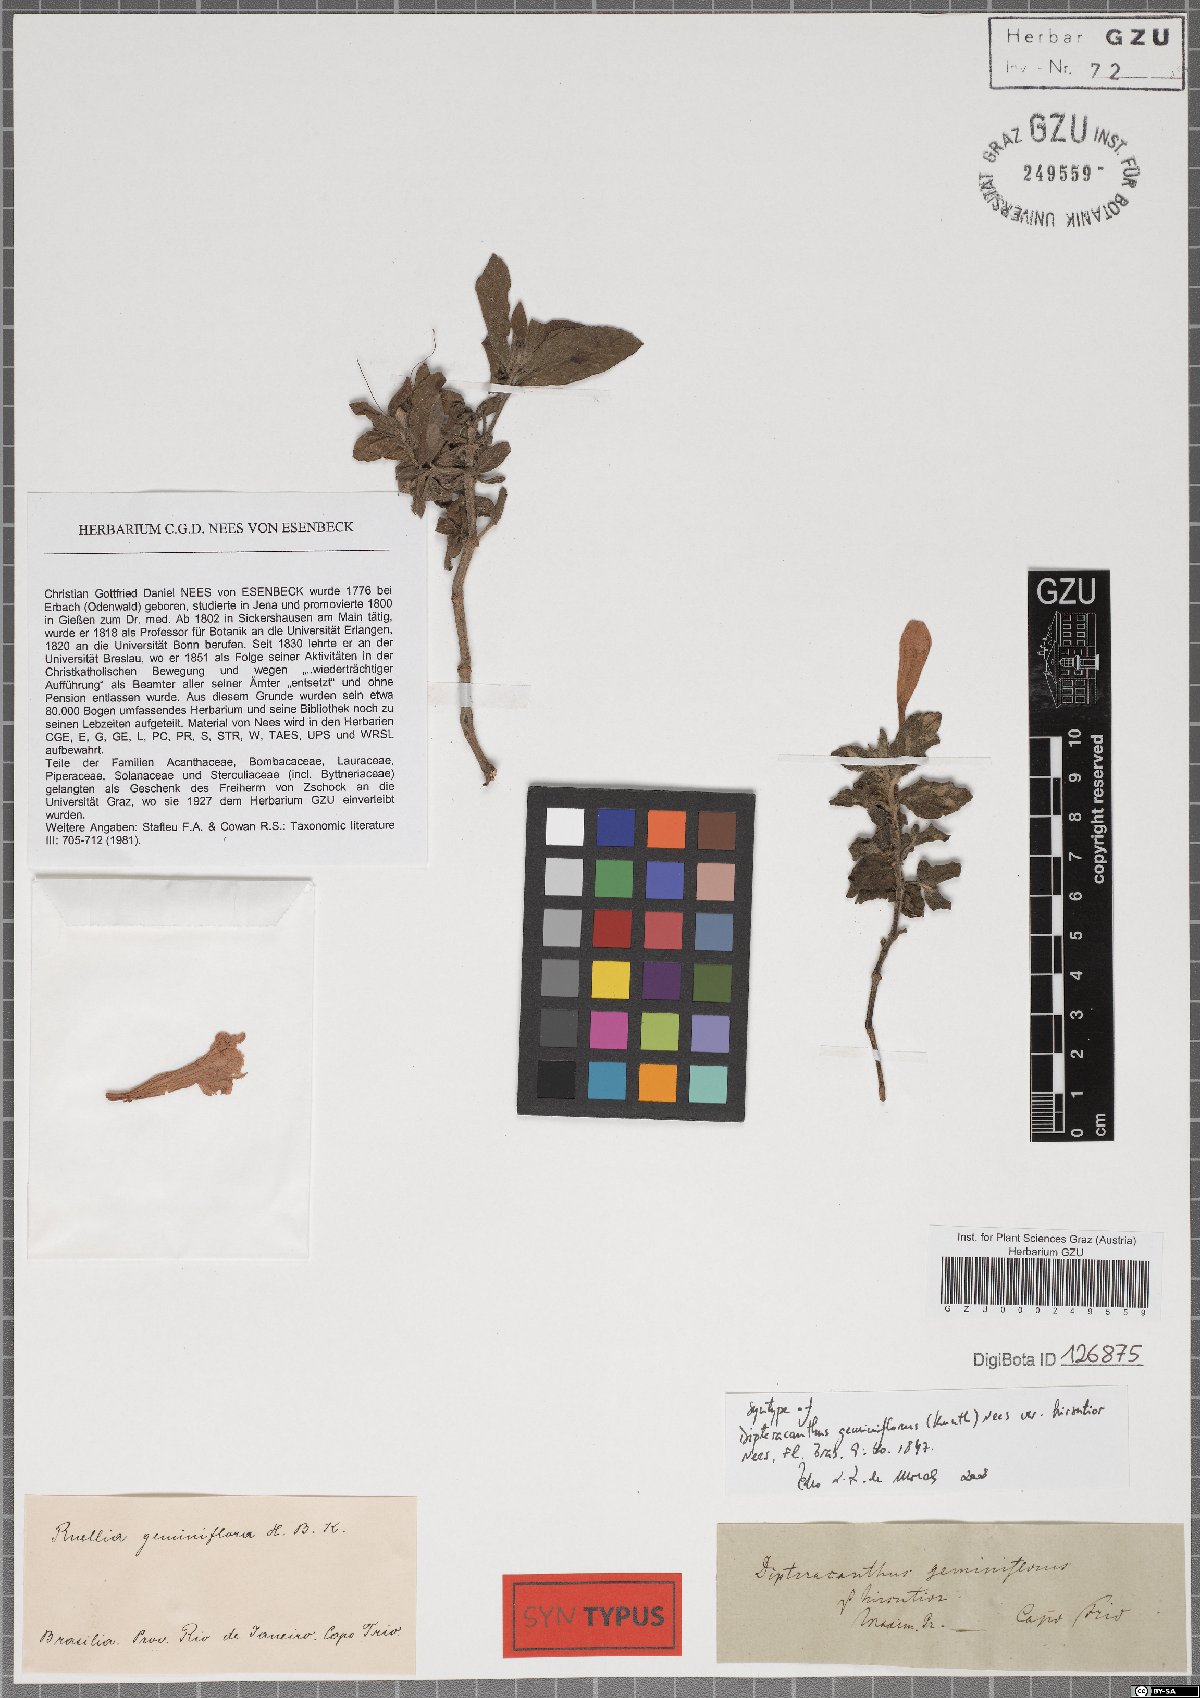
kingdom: Plantae
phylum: Tracheophyta
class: Magnoliopsida
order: Lamiales
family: Acanthaceae
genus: Ruellia
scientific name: Ruellia geminiflora
